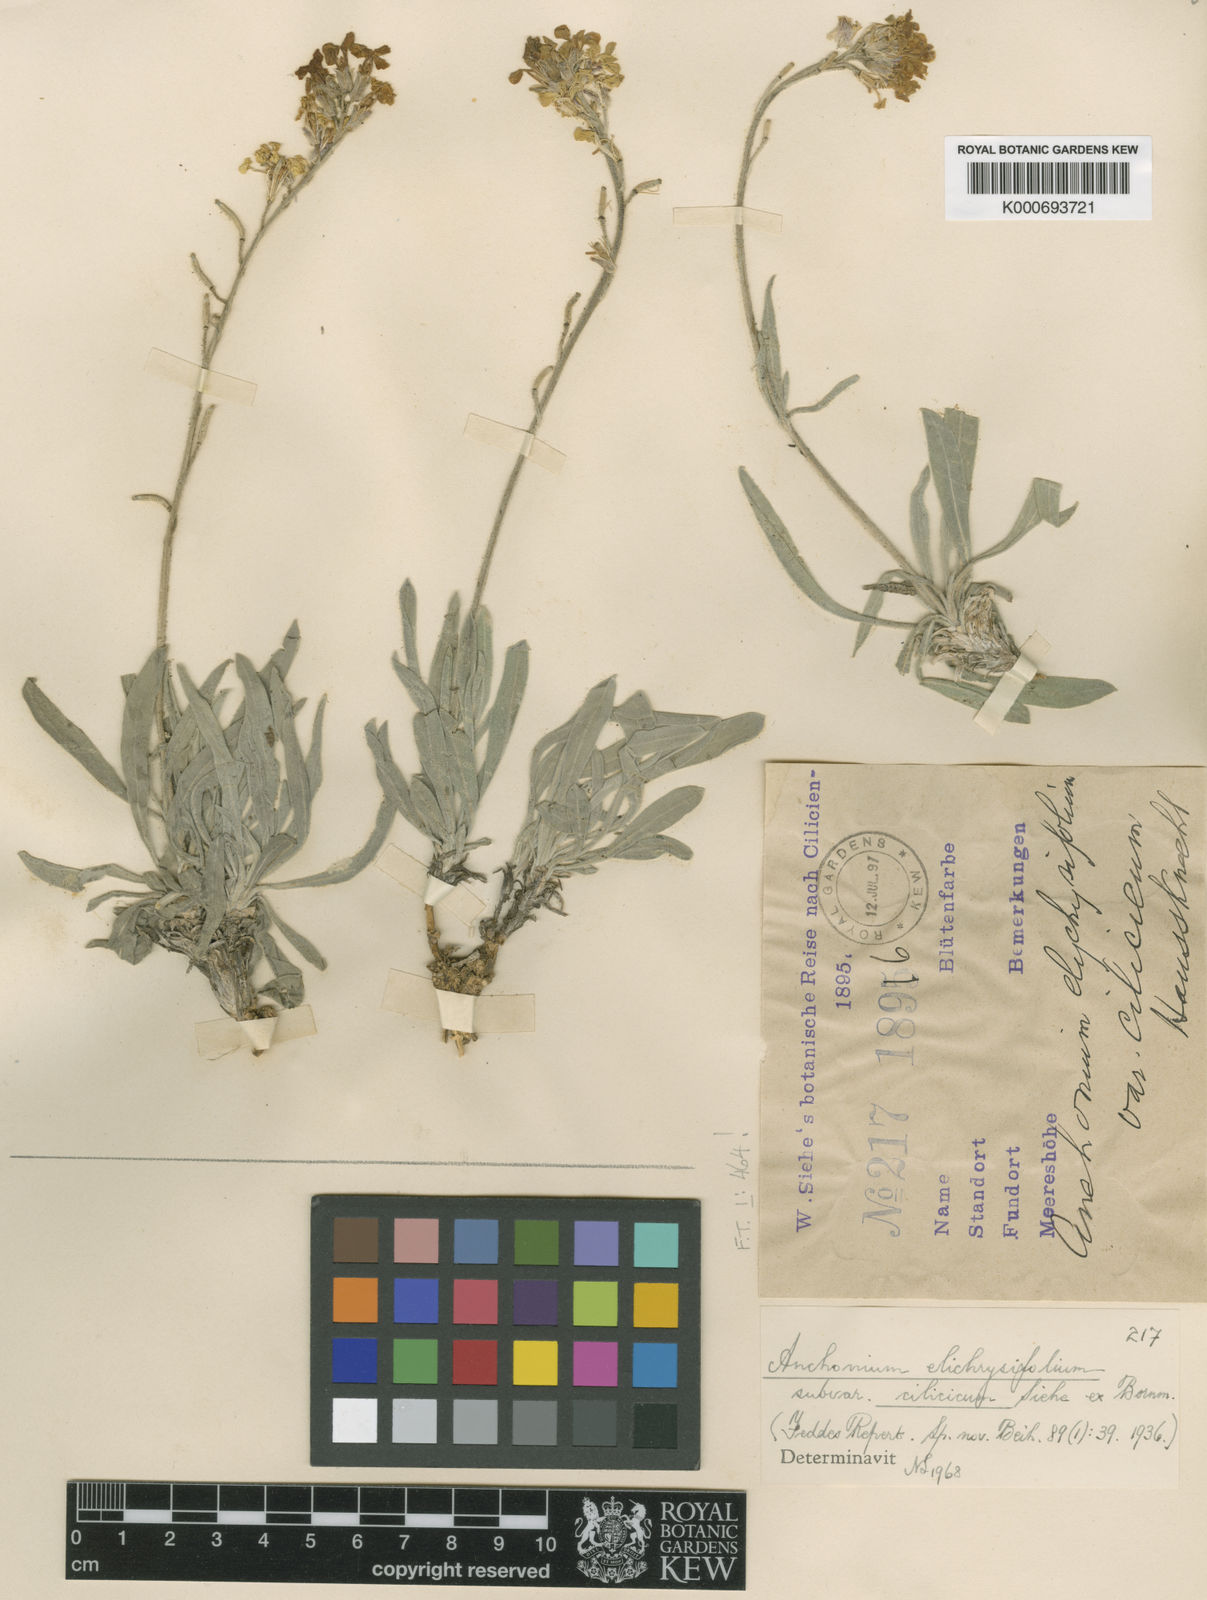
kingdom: Plantae
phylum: Tracheophyta
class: Magnoliopsida
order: Brassicales
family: Brassicaceae
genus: Anchonium
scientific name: Anchonium elichrysifolium
